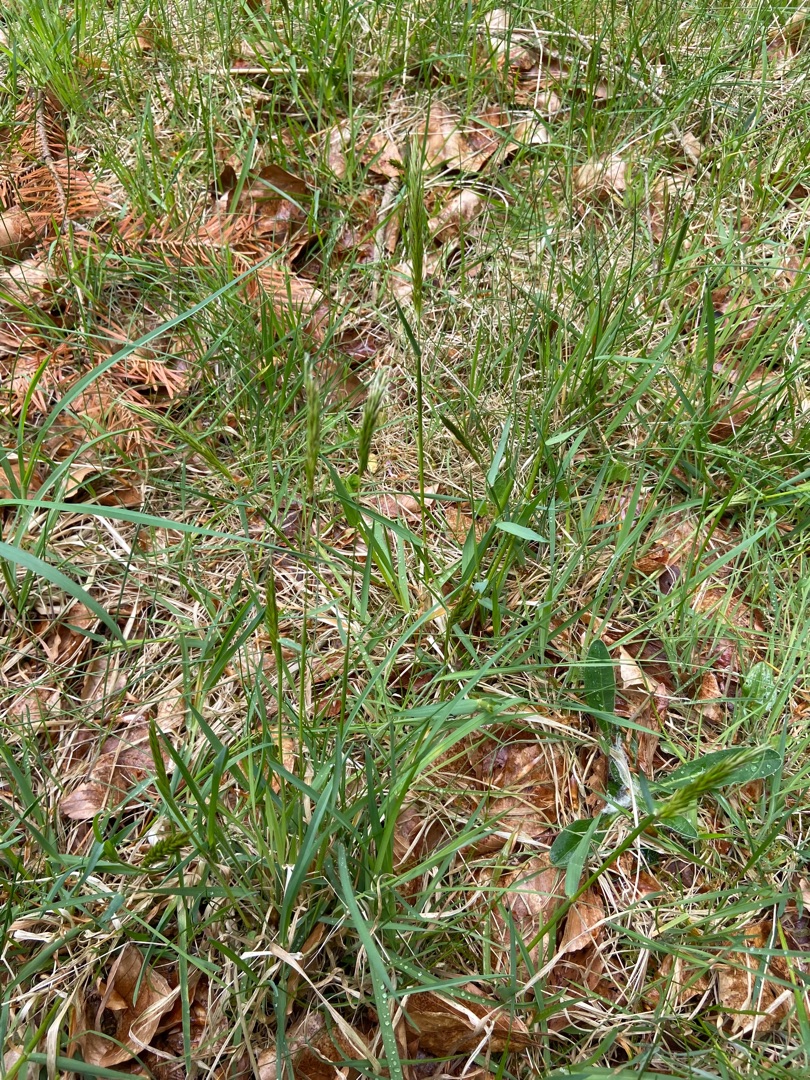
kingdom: Plantae
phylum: Tracheophyta
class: Liliopsida
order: Poales
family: Poaceae
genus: Anthoxanthum
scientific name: Anthoxanthum odoratum
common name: Vellugtende gulaks
